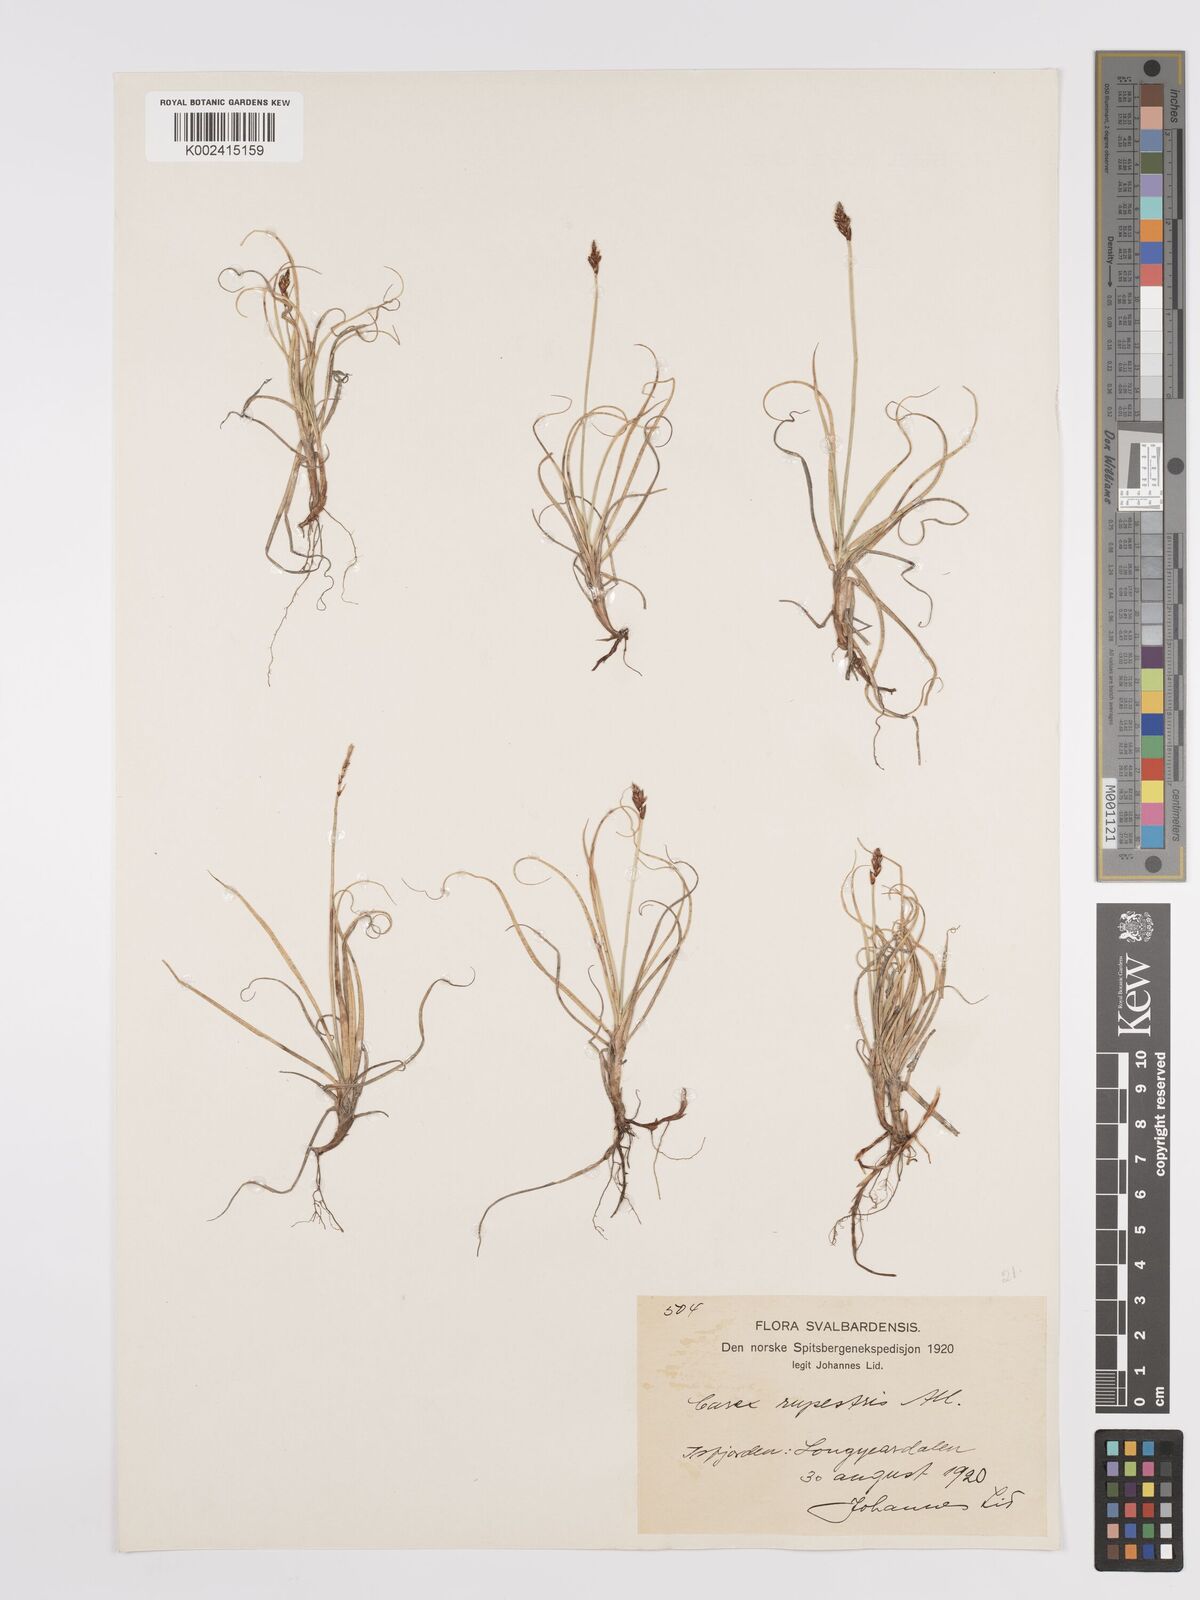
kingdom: Plantae
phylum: Tracheophyta
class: Liliopsida
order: Poales
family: Cyperaceae
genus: Carex
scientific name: Carex rupestris
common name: Rock sedge
